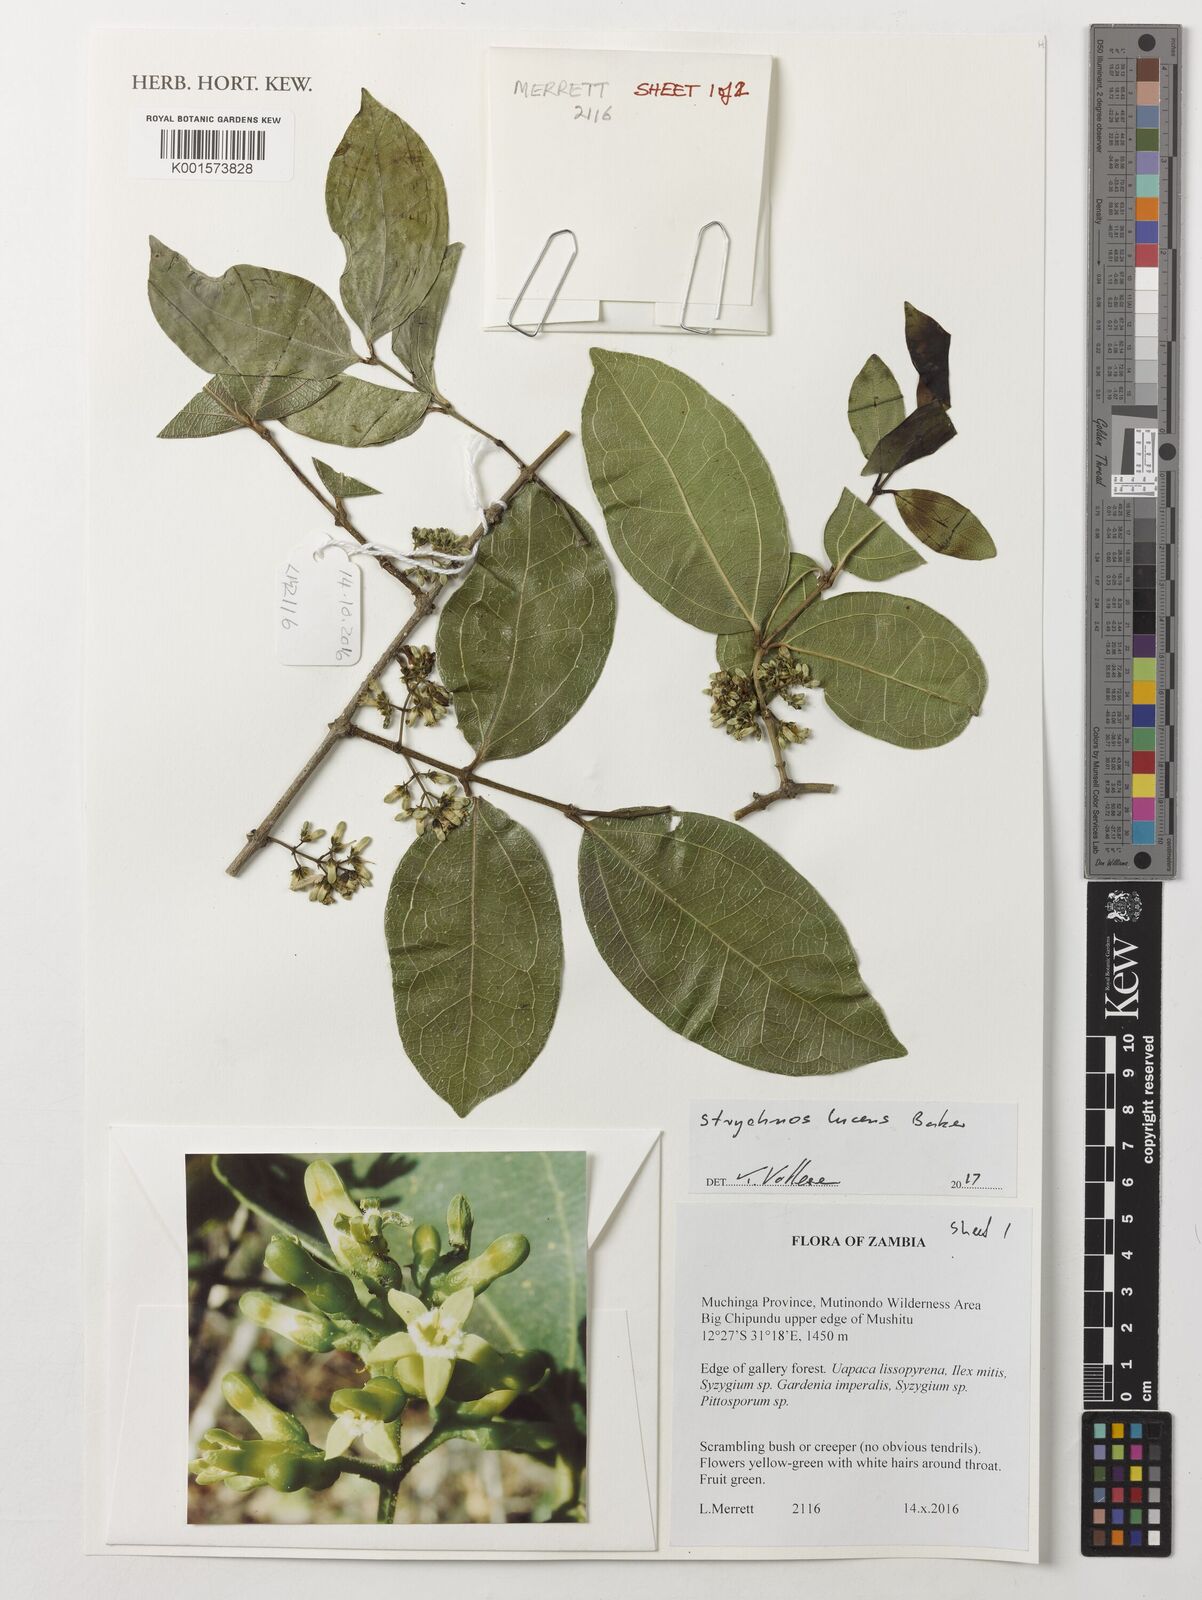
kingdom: Plantae
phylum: Tracheophyta
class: Magnoliopsida
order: Gentianales
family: Loganiaceae
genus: Strychnos
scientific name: Strychnos lucens
